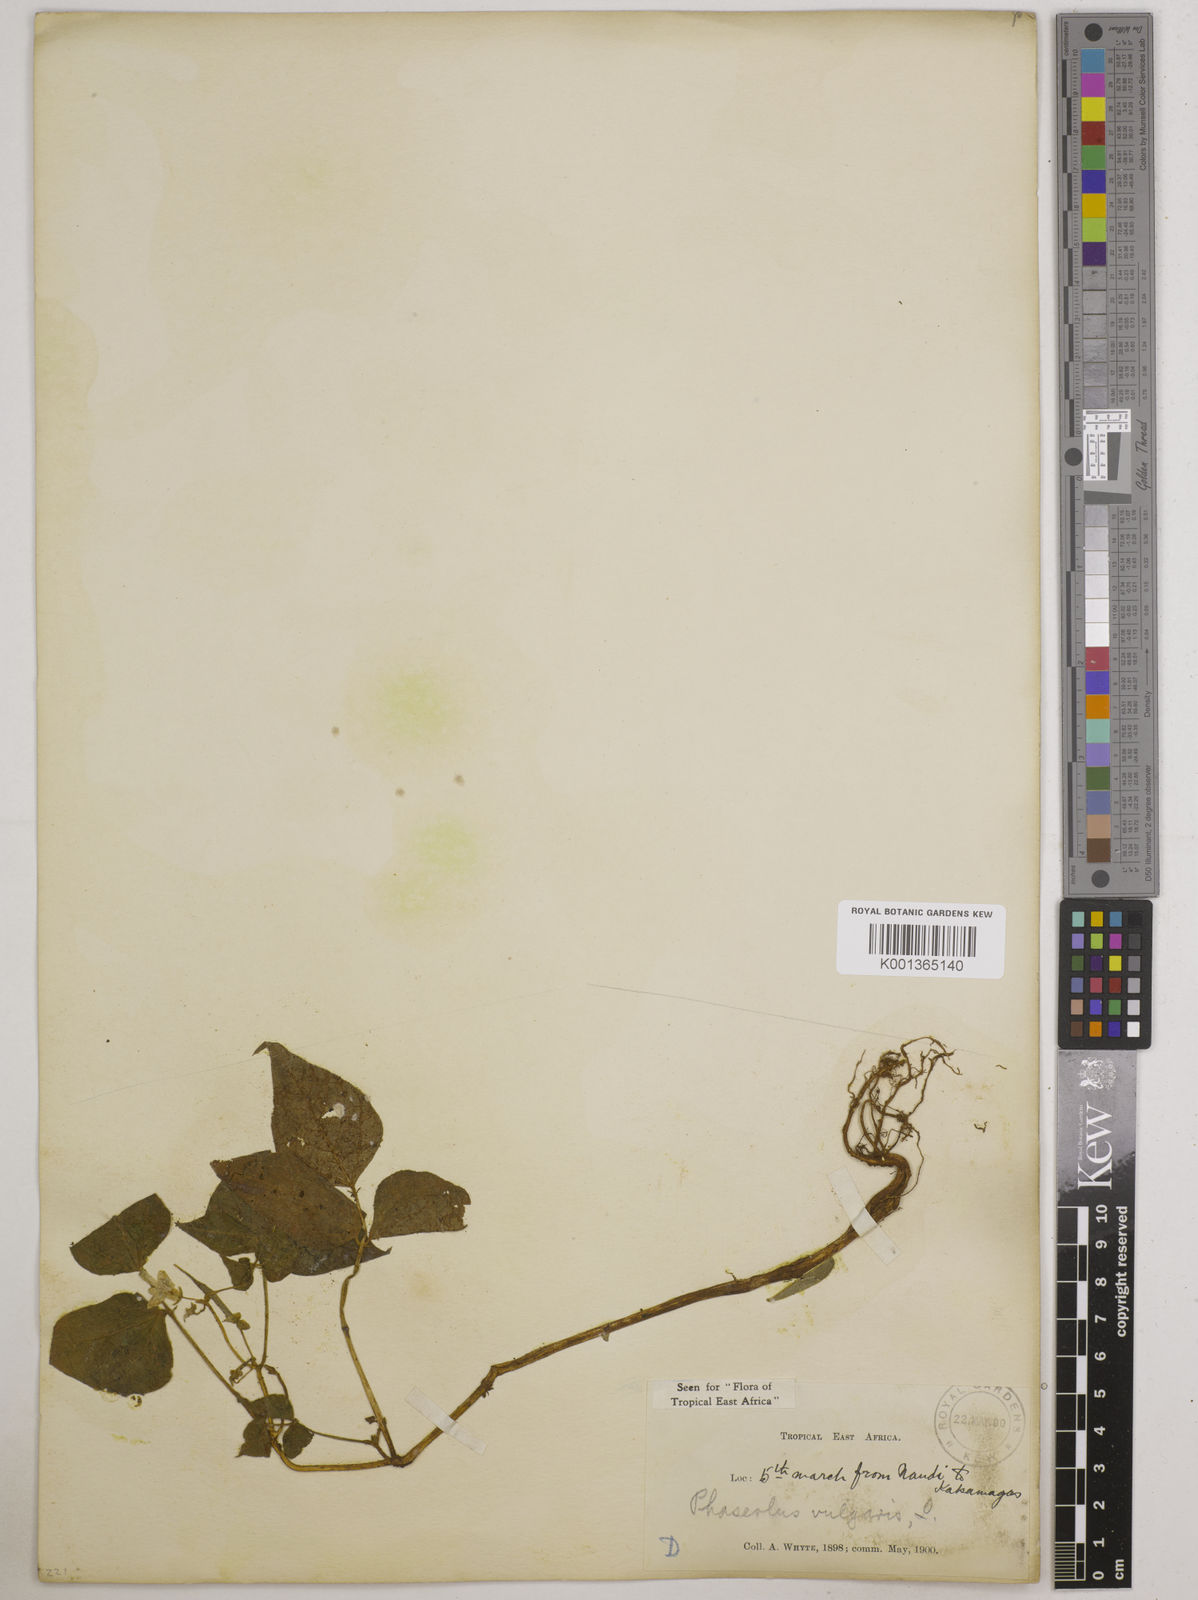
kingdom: Plantae
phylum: Tracheophyta
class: Magnoliopsida
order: Fabales
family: Fabaceae
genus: Phaseolus
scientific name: Phaseolus vulgaris
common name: Bean
